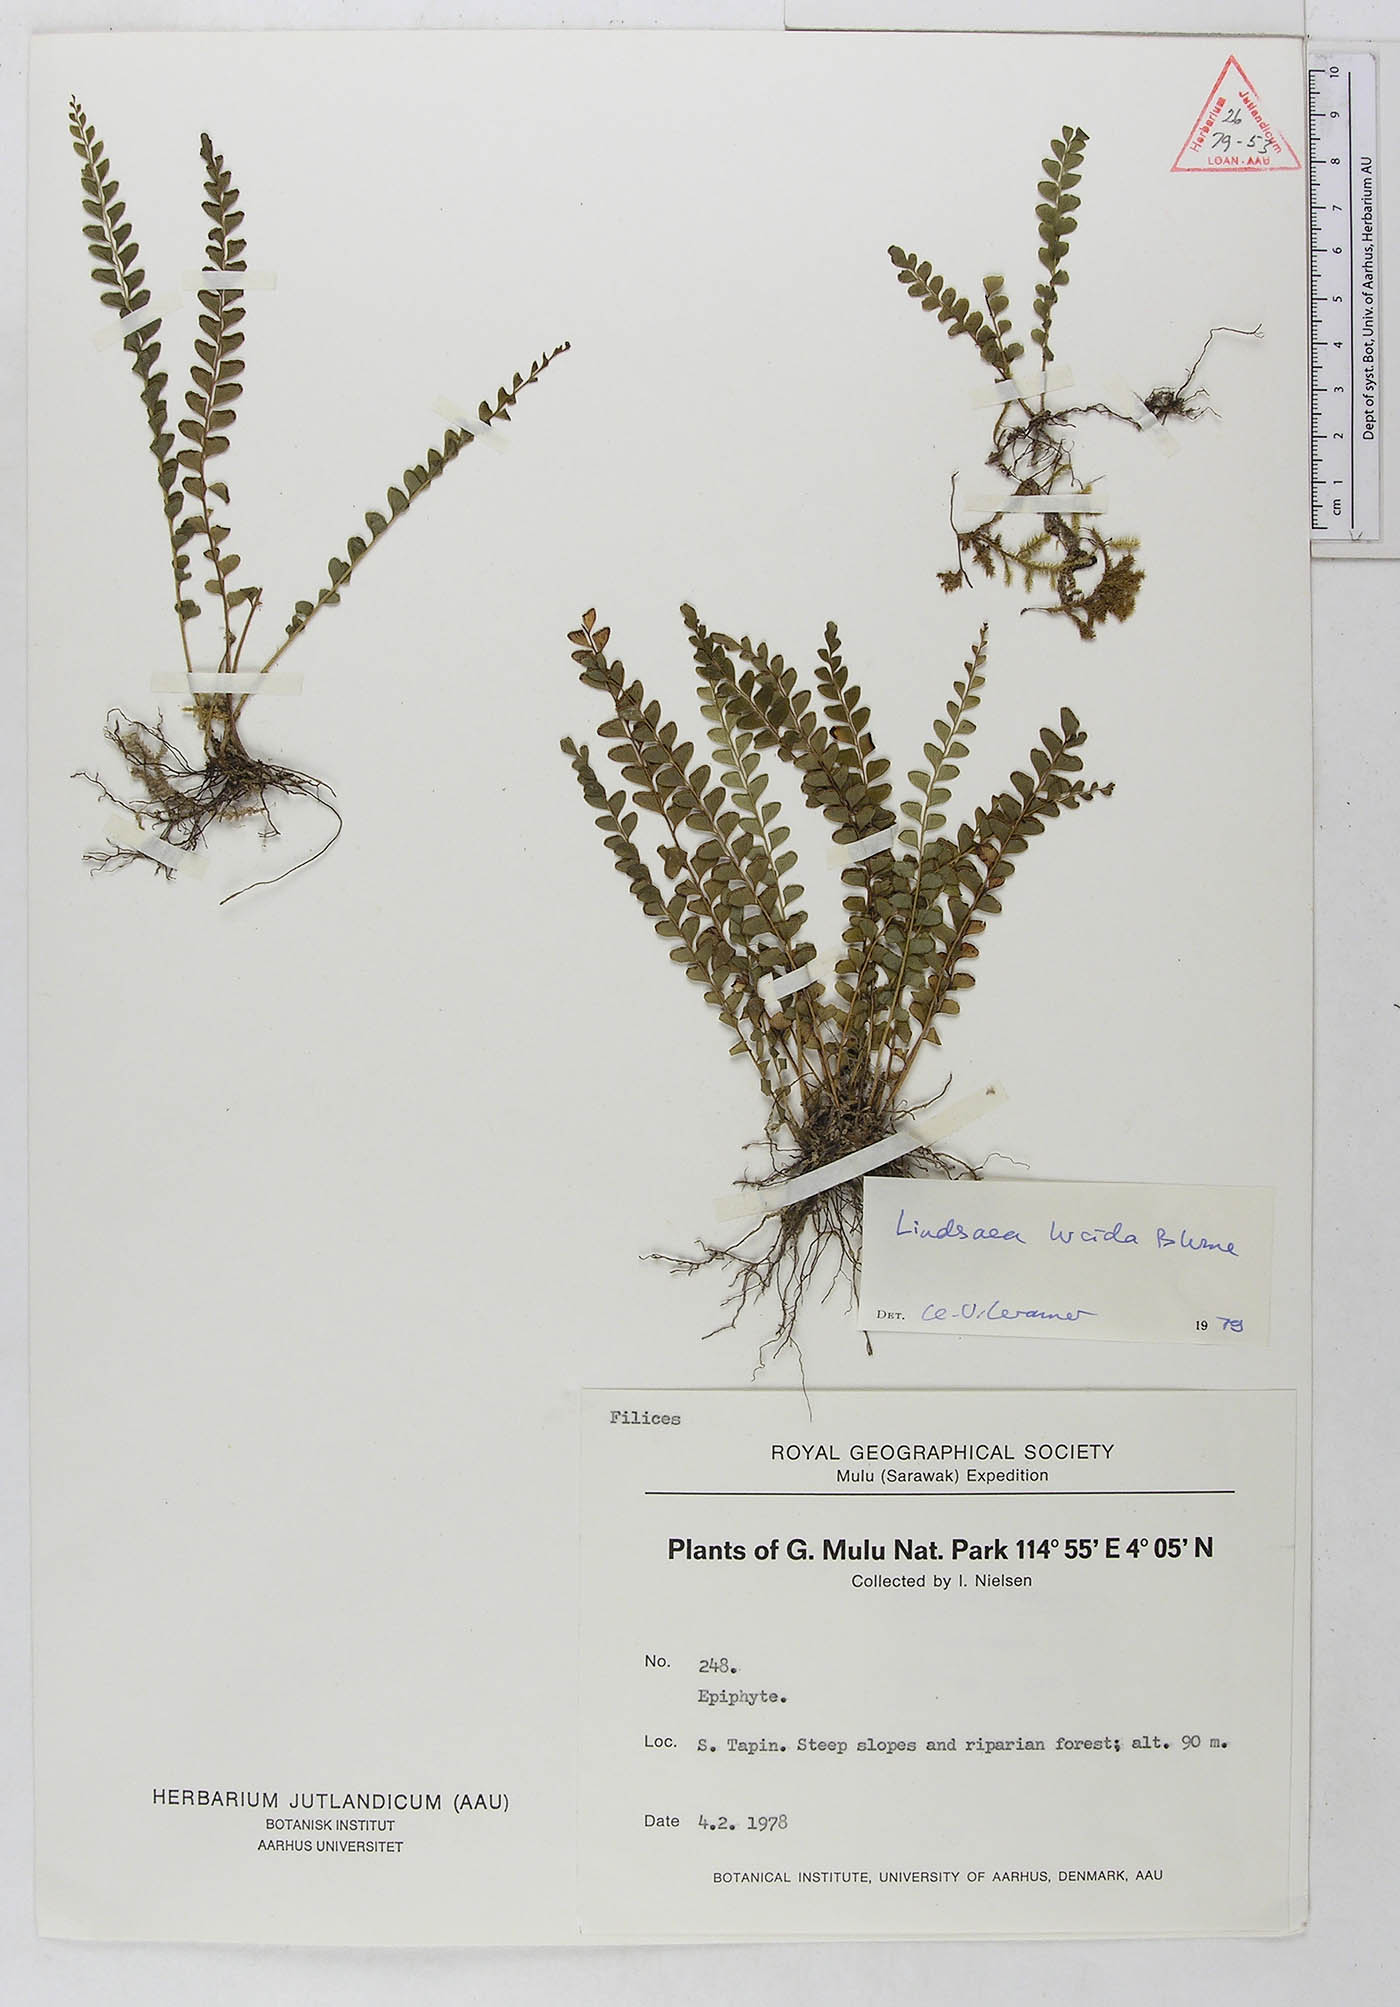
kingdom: Plantae
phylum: Tracheophyta
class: Polypodiopsida
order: Polypodiales
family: Lindsaeaceae
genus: Lindsaea
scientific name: Lindsaea lucida
